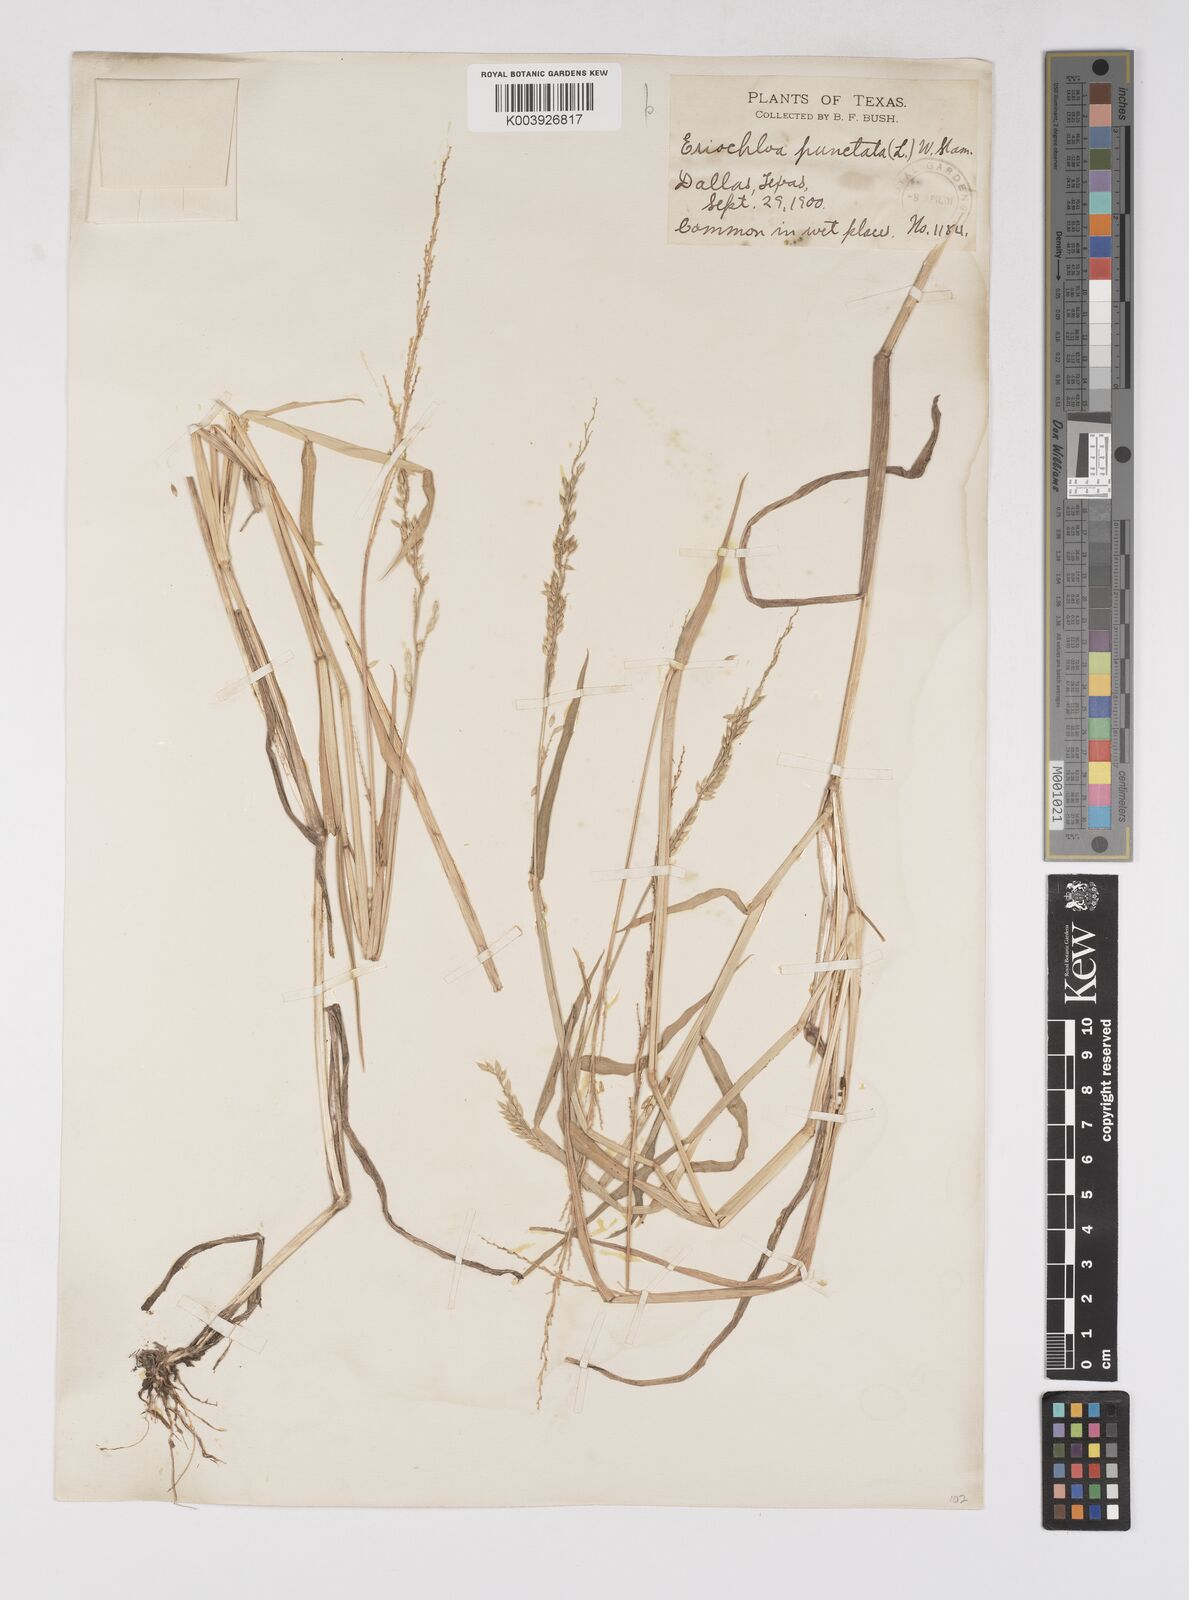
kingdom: Plantae
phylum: Tracheophyta
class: Liliopsida
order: Poales
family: Poaceae
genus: Eriochloa
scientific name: Eriochloa punctata
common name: Louisiana cupgrass
